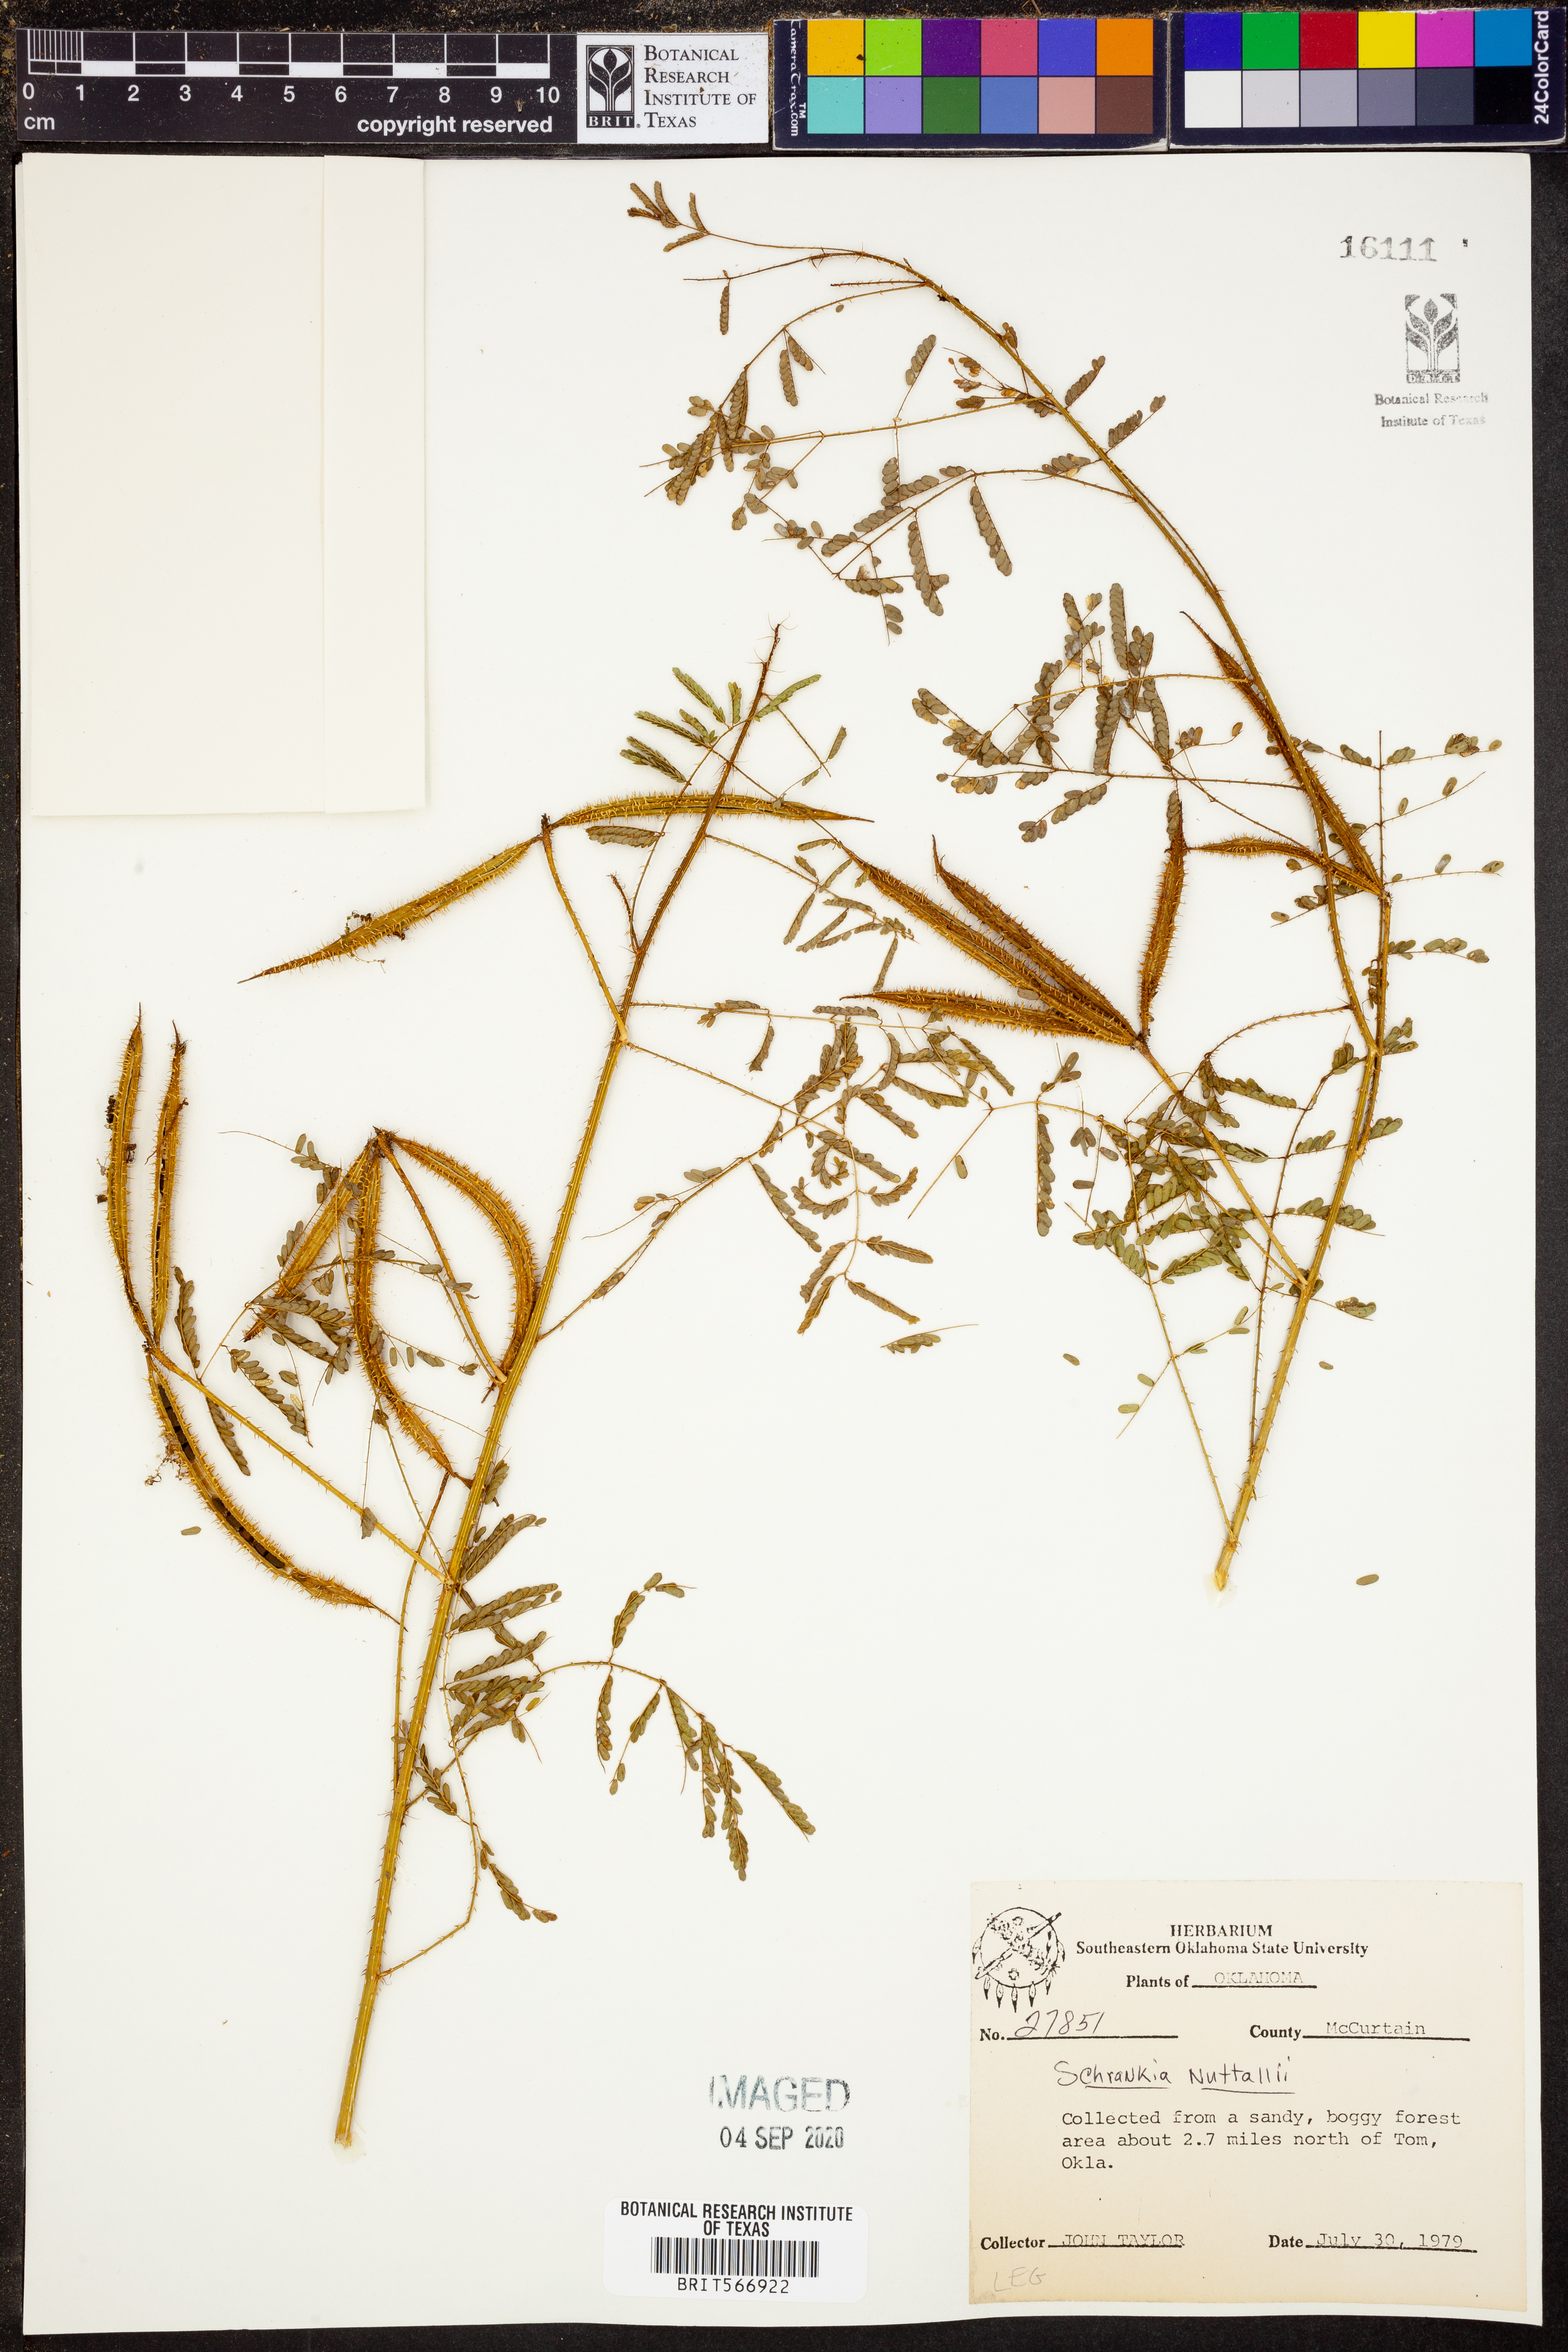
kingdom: Plantae
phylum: Tracheophyta
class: Magnoliopsida
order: Fabales
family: Fabaceae
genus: Mimosa
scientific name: Mimosa quadrivalvis
